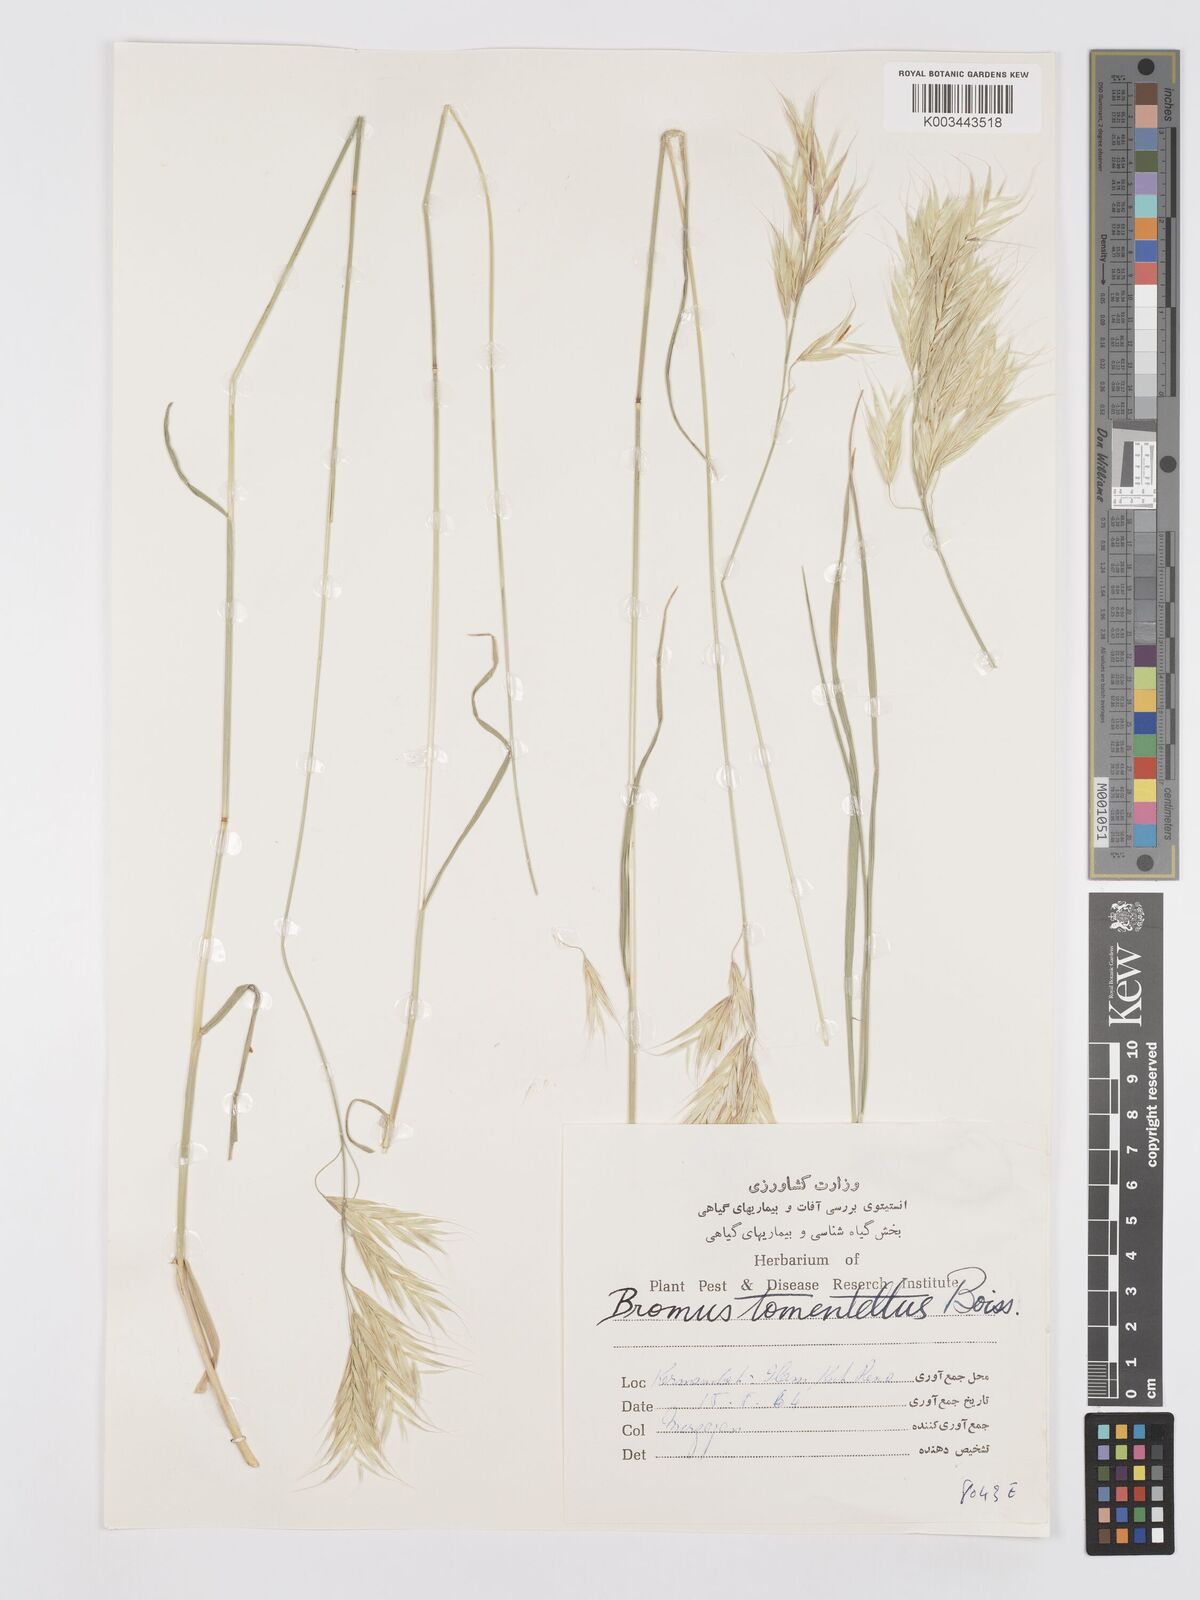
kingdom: Plantae
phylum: Tracheophyta
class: Liliopsida
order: Poales
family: Poaceae
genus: Bromus
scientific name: Bromus tomentellus
